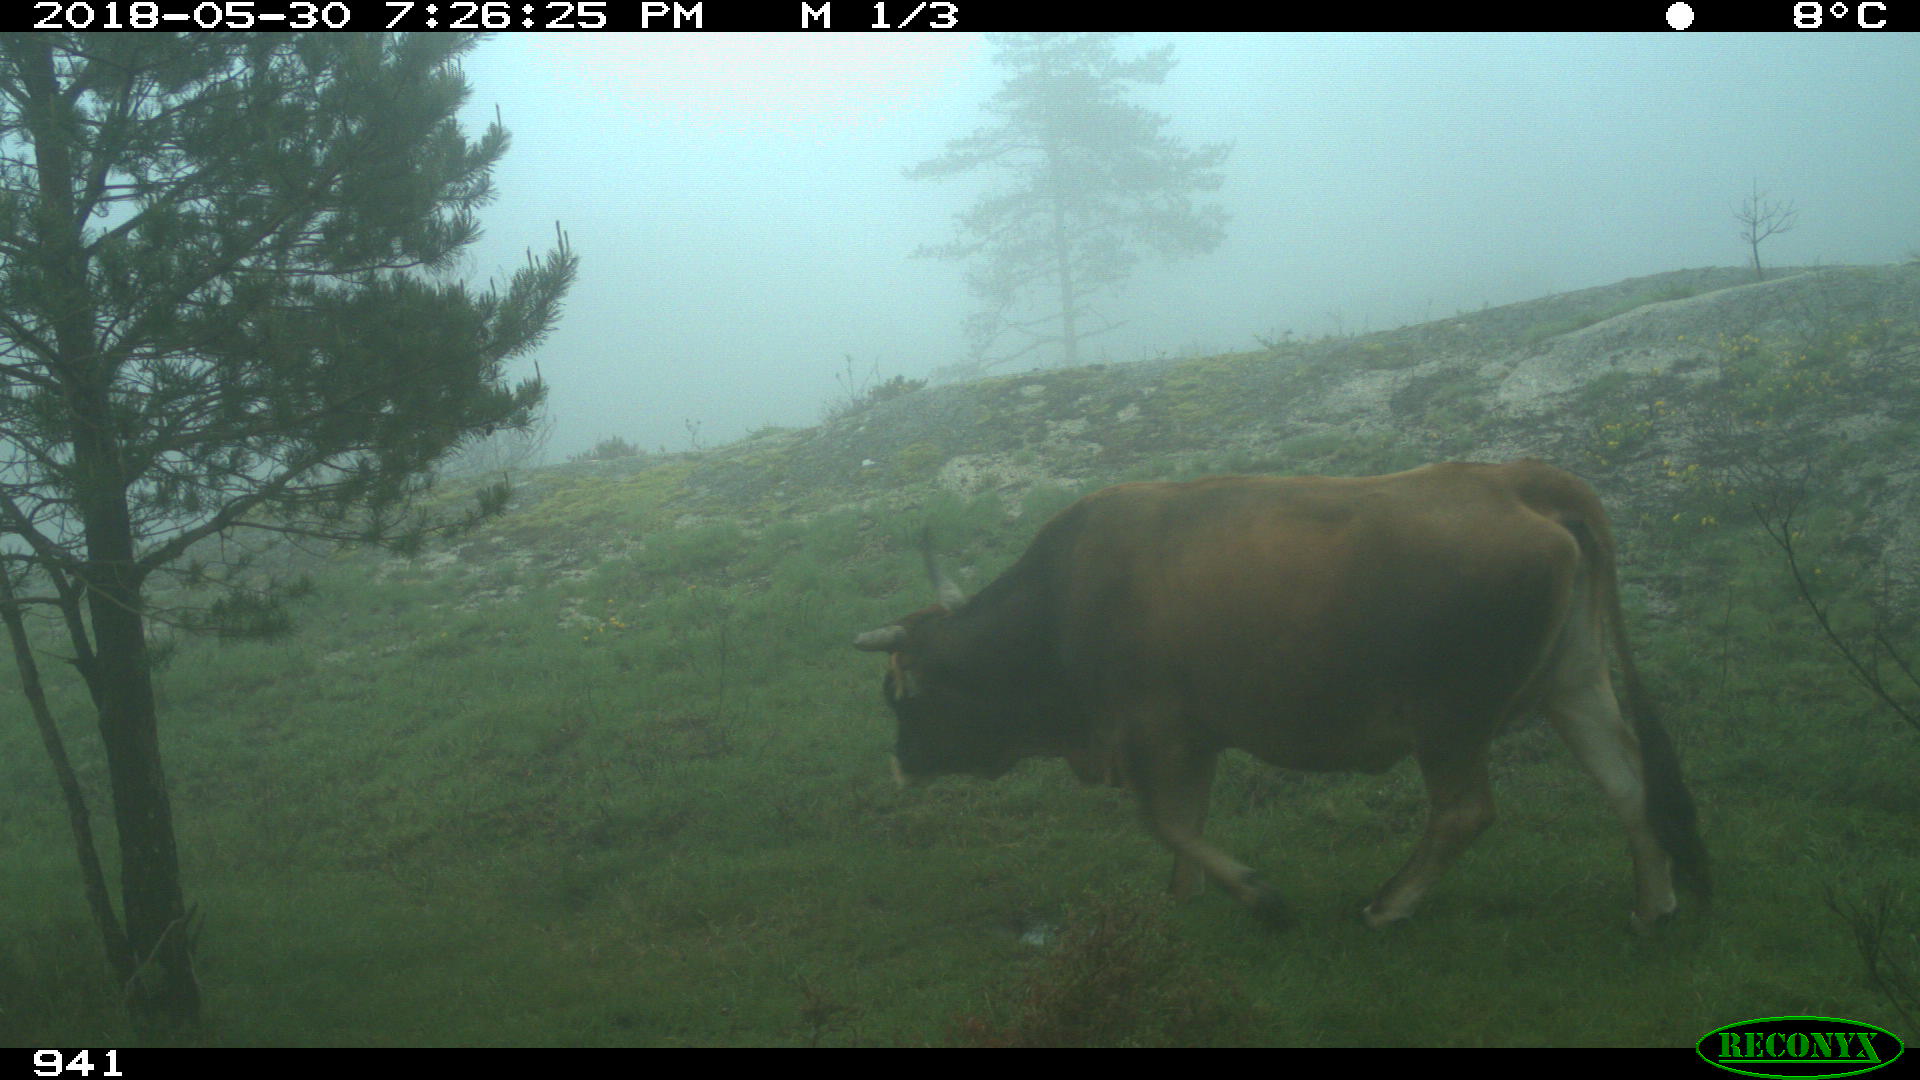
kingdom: Animalia
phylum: Chordata
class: Mammalia
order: Artiodactyla
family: Bovidae
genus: Bos
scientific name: Bos taurus
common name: Domesticated cattle
